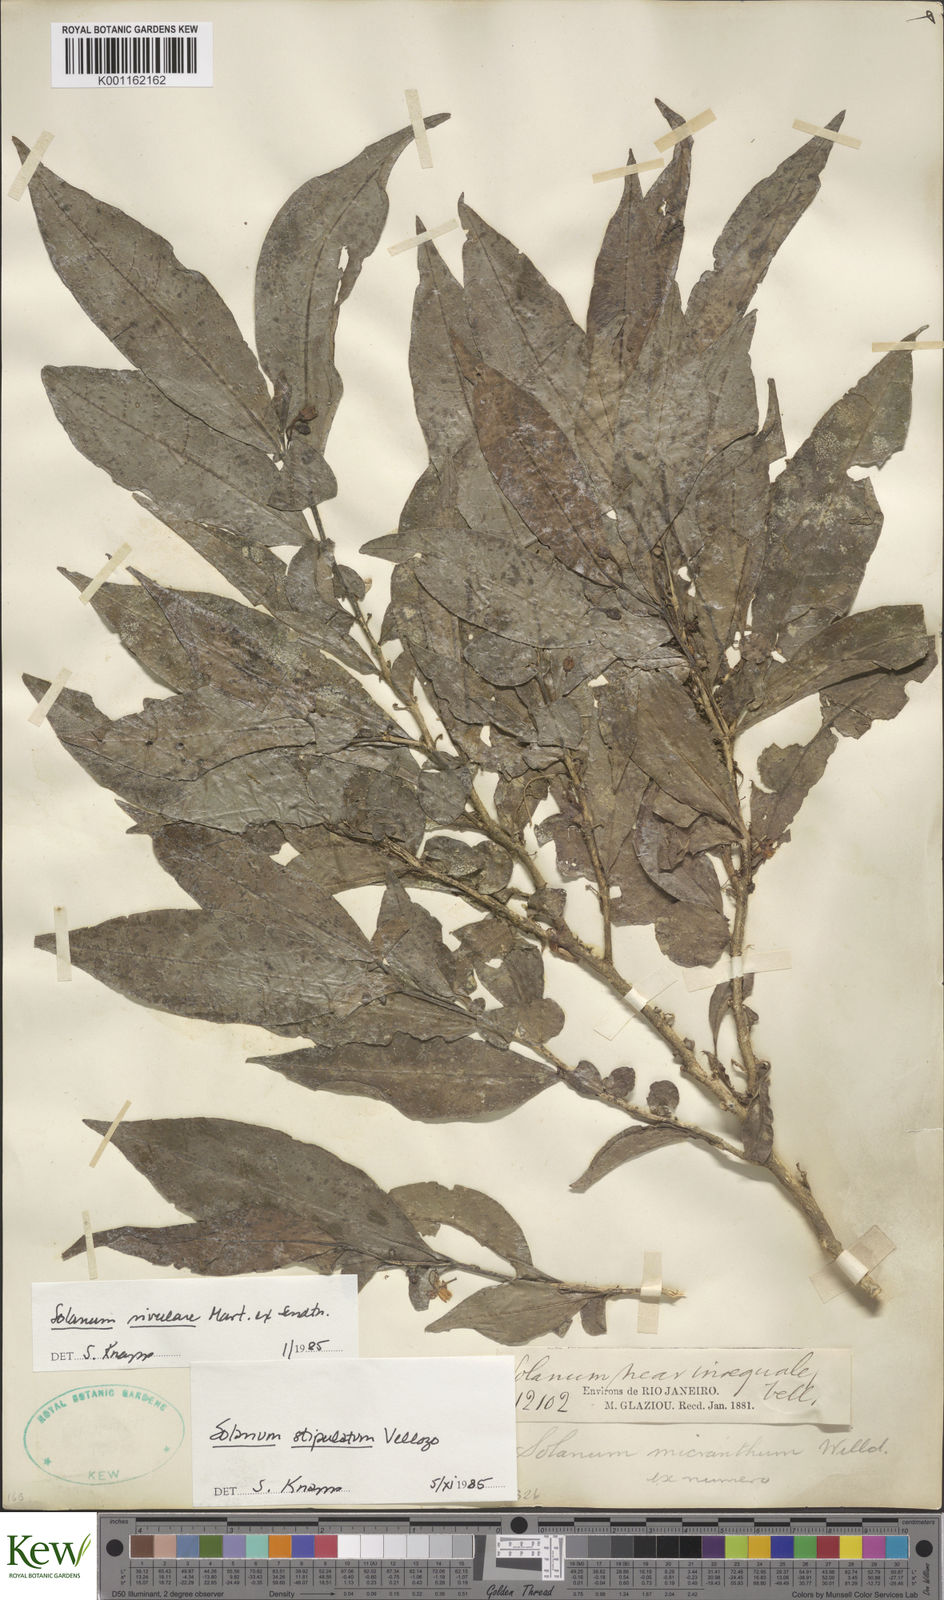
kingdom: Plantae
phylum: Tracheophyta
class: Magnoliopsida
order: Solanales
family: Solanaceae
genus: Solanum
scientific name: Solanum stipulatum
